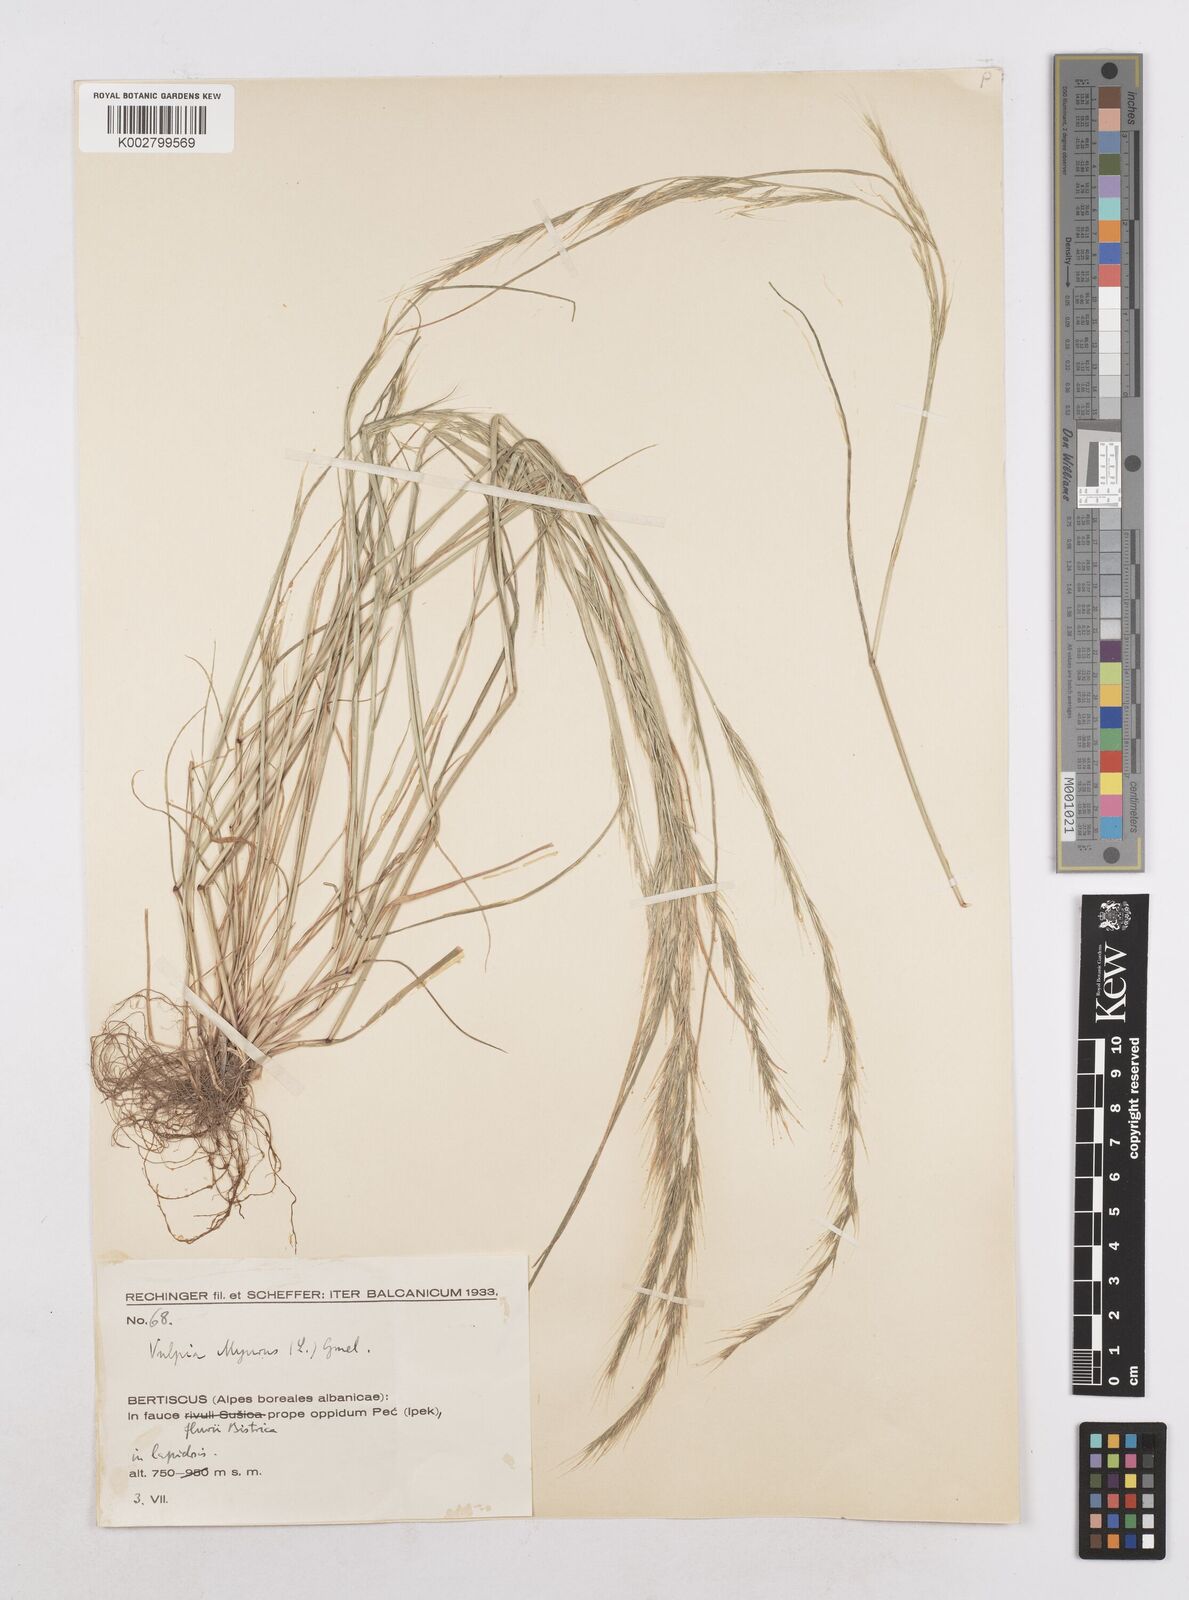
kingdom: Plantae
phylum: Tracheophyta
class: Liliopsida
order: Poales
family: Poaceae
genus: Festuca
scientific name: Festuca myuros
